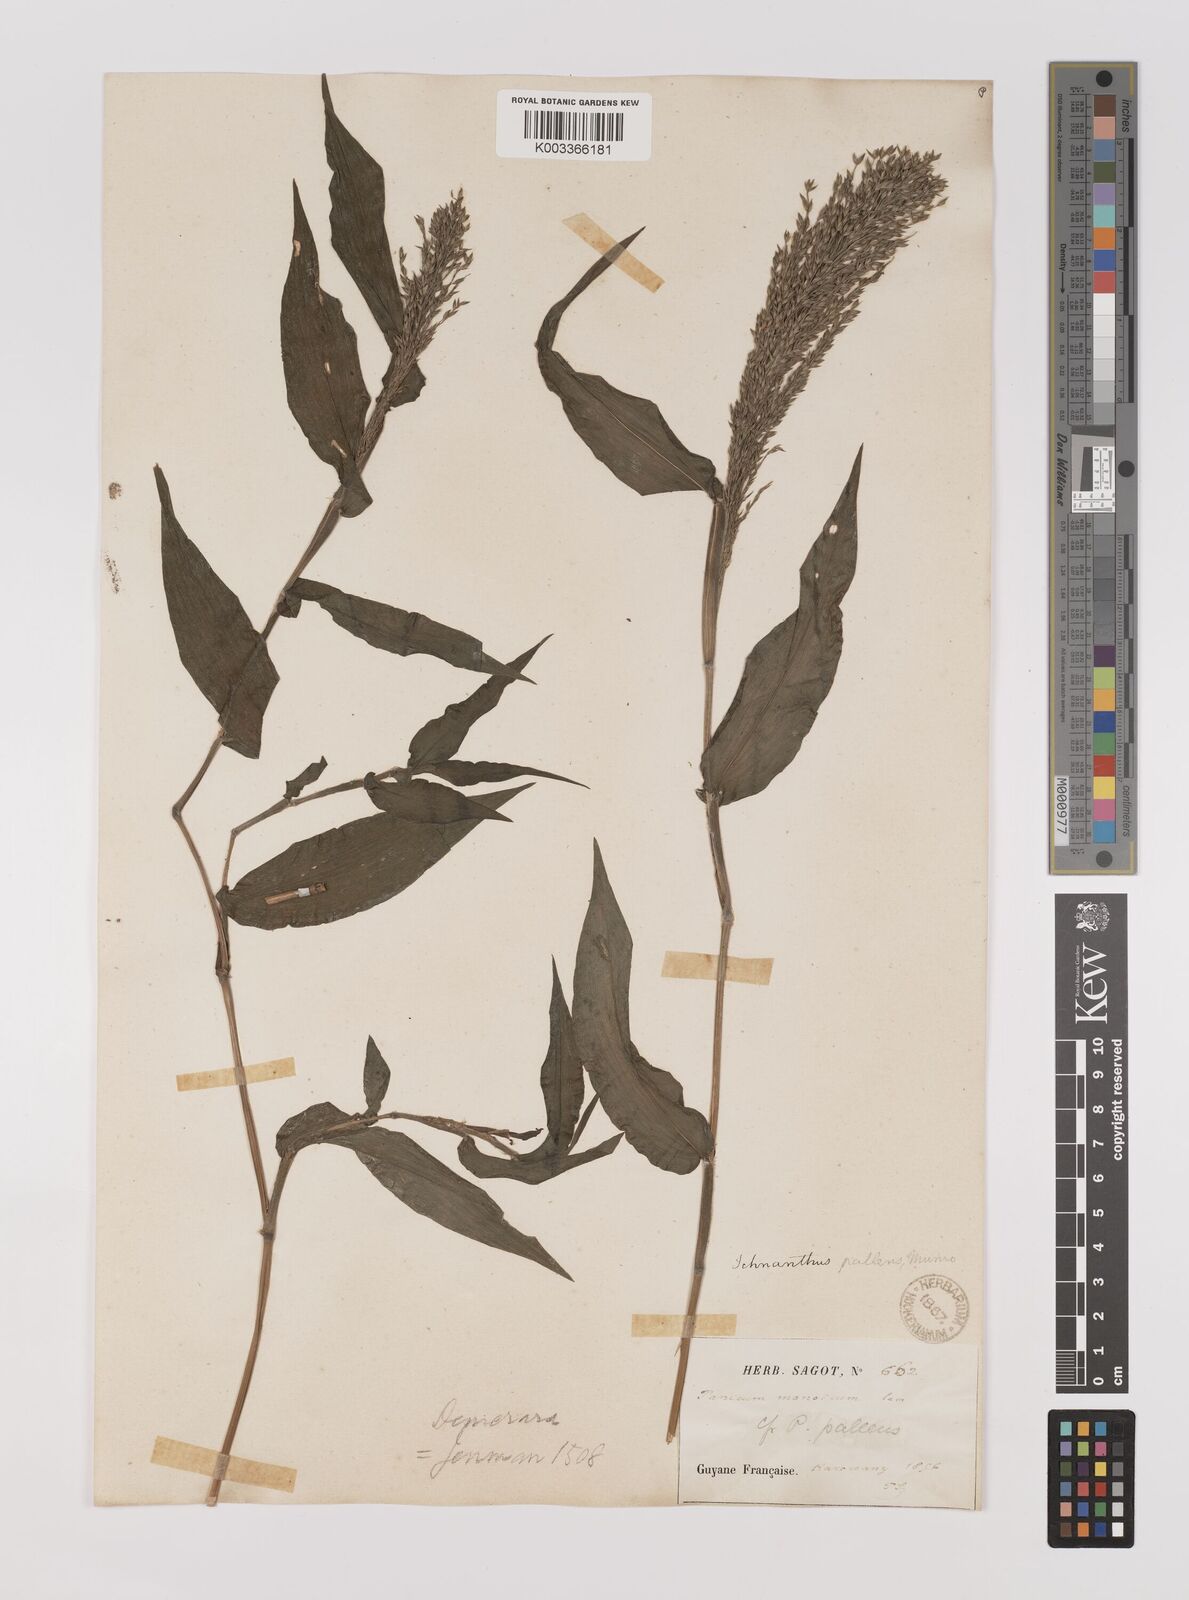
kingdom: Plantae
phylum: Tracheophyta
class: Liliopsida
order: Poales
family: Poaceae
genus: Ichnanthus
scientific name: Ichnanthus pallens
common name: Water grass
